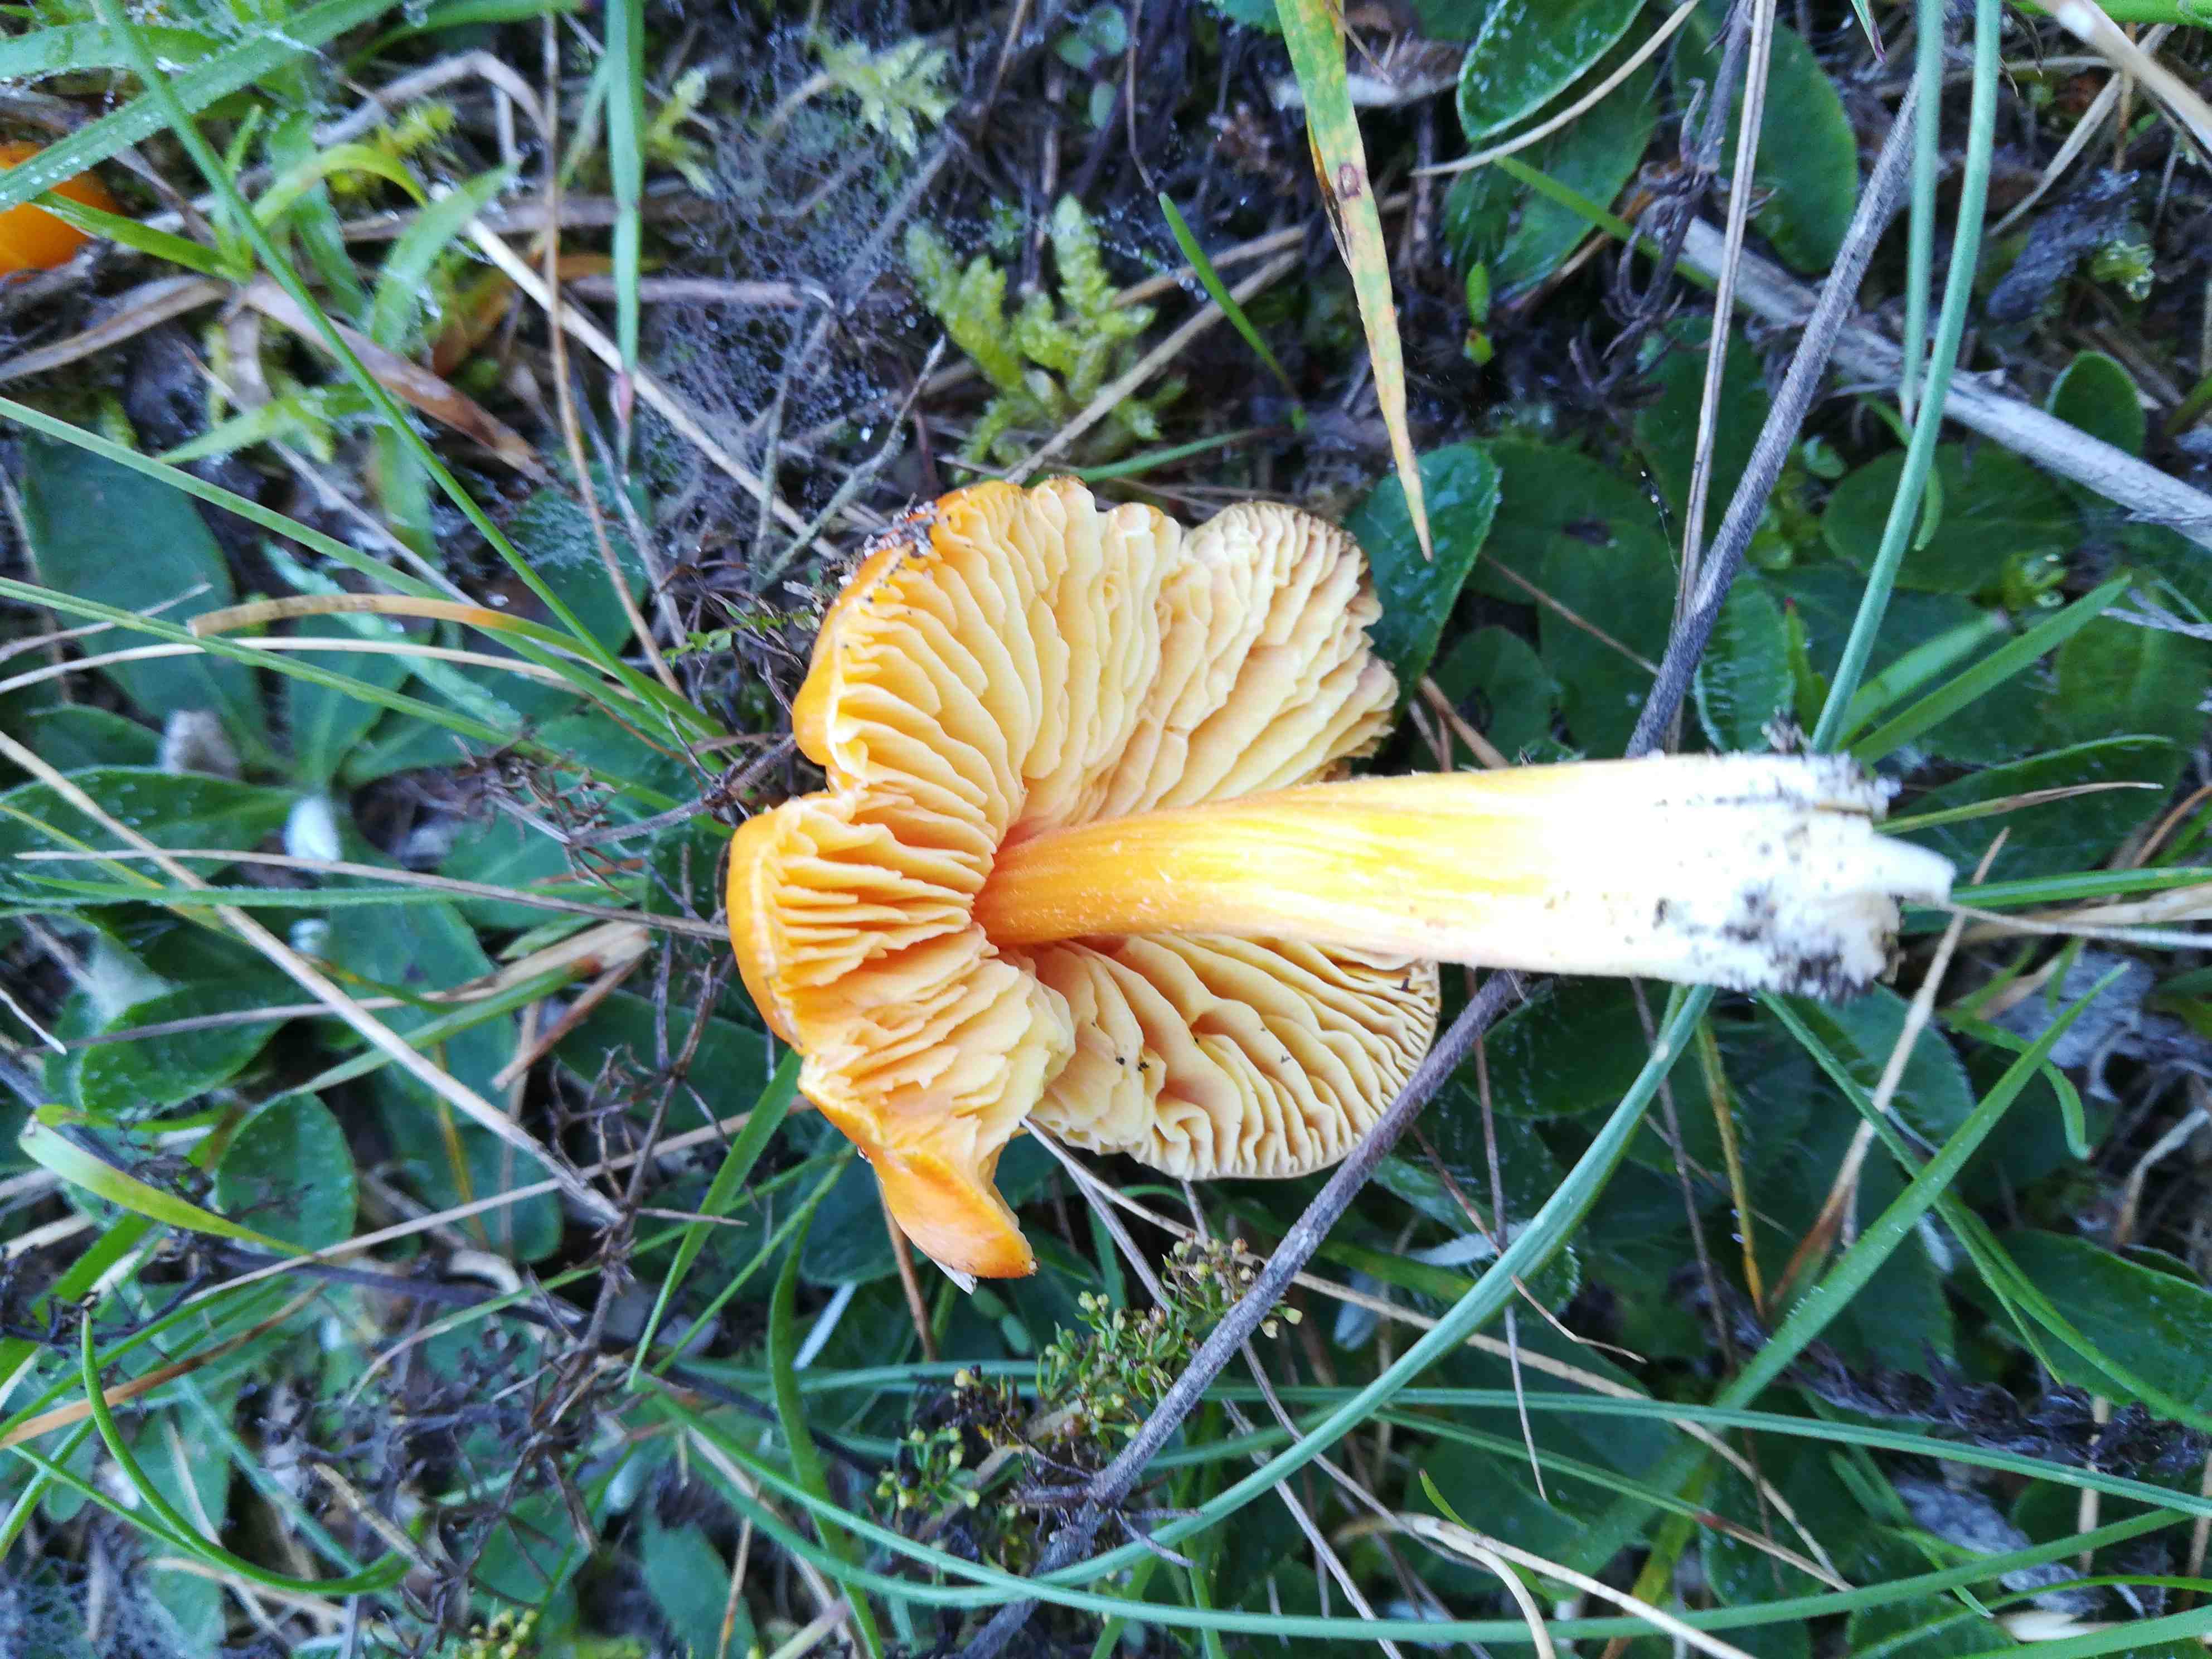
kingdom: Fungi
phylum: Basidiomycota
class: Agaricomycetes
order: Agaricales
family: Hygrophoraceae
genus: Hygrocybe
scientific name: Hygrocybe
